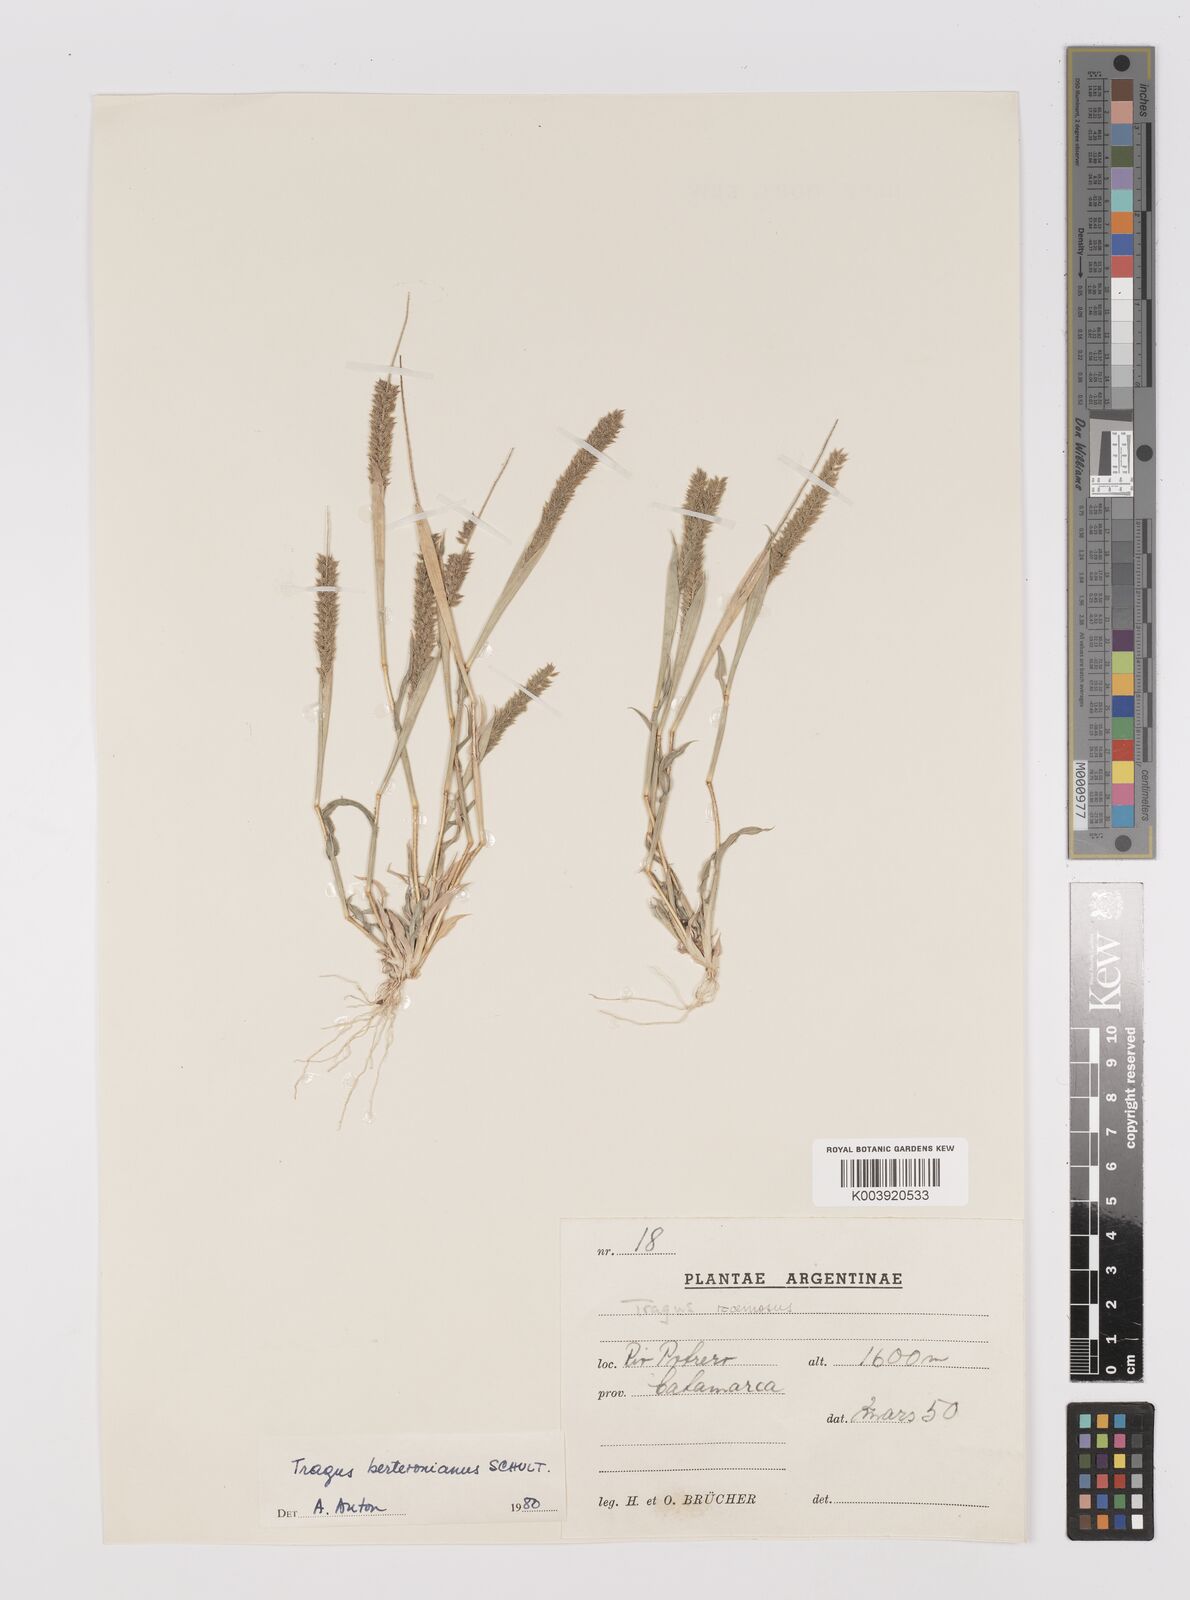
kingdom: Plantae
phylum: Tracheophyta
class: Liliopsida
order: Poales
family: Poaceae
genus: Tragus
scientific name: Tragus berteronianus
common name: African bur-grass
